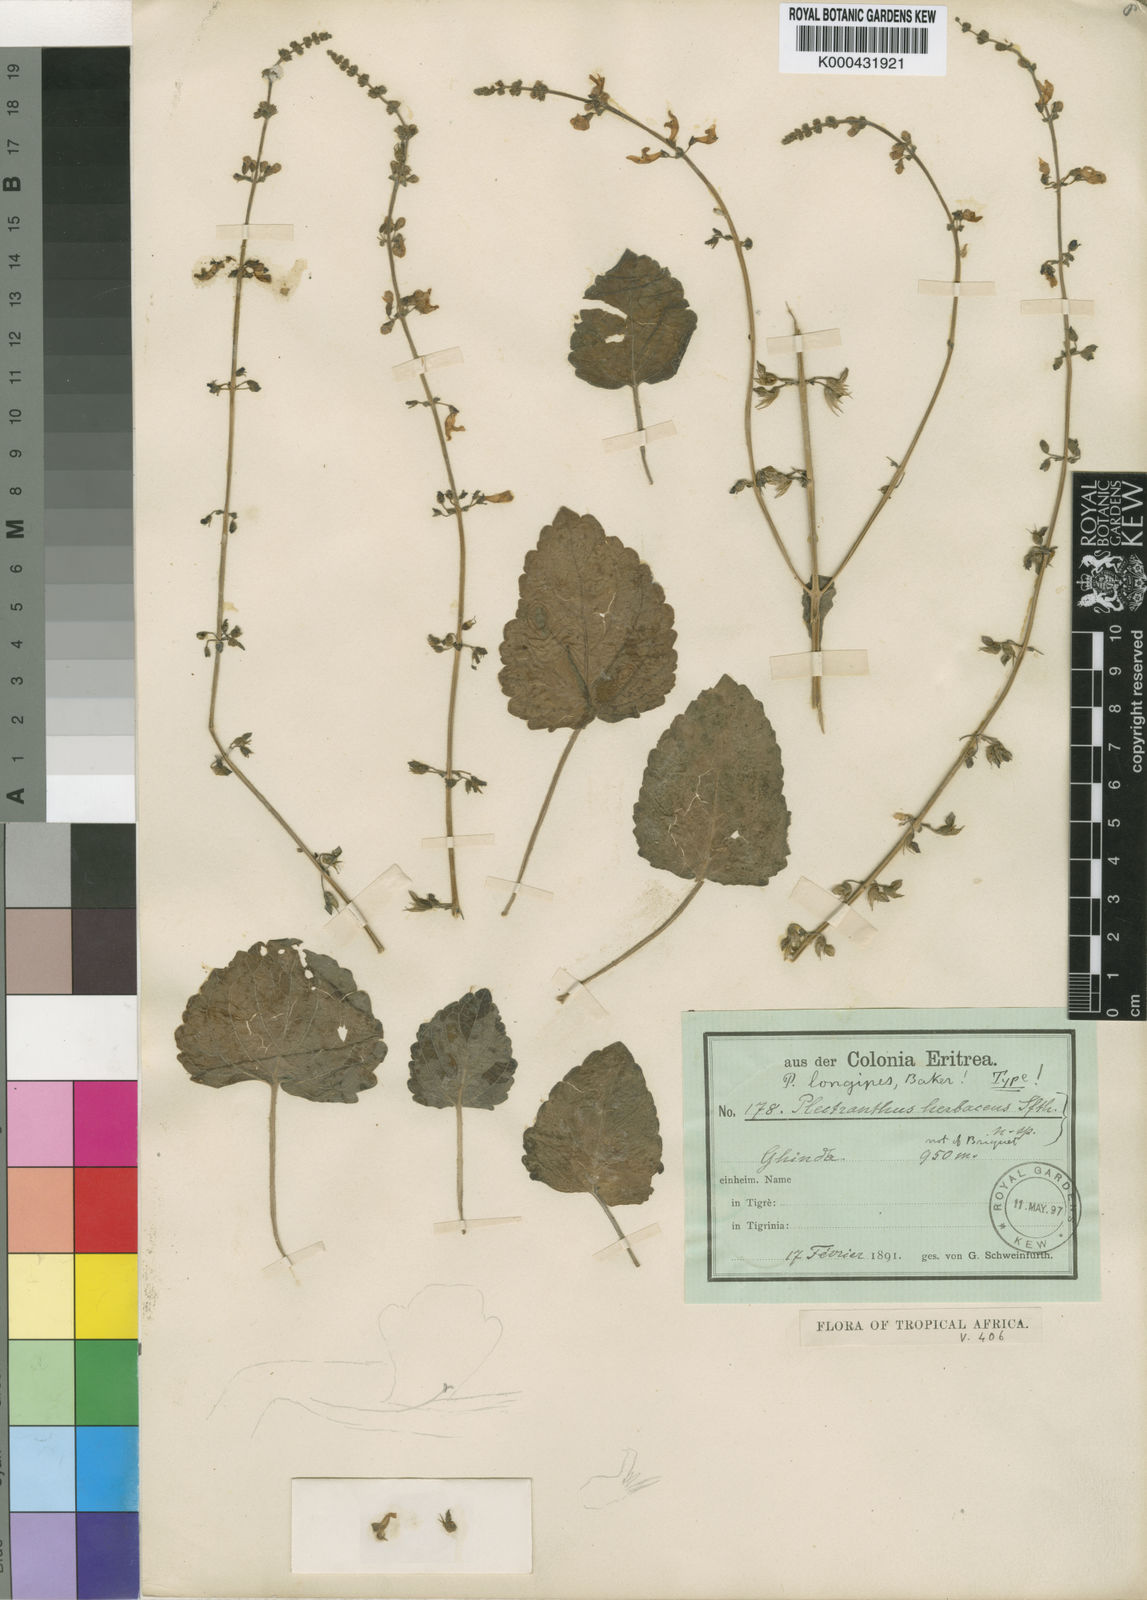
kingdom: Plantae
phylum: Tracheophyta
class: Magnoliopsida
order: Lamiales
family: Lamiaceae
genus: Equilabium
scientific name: Equilabium longipes
